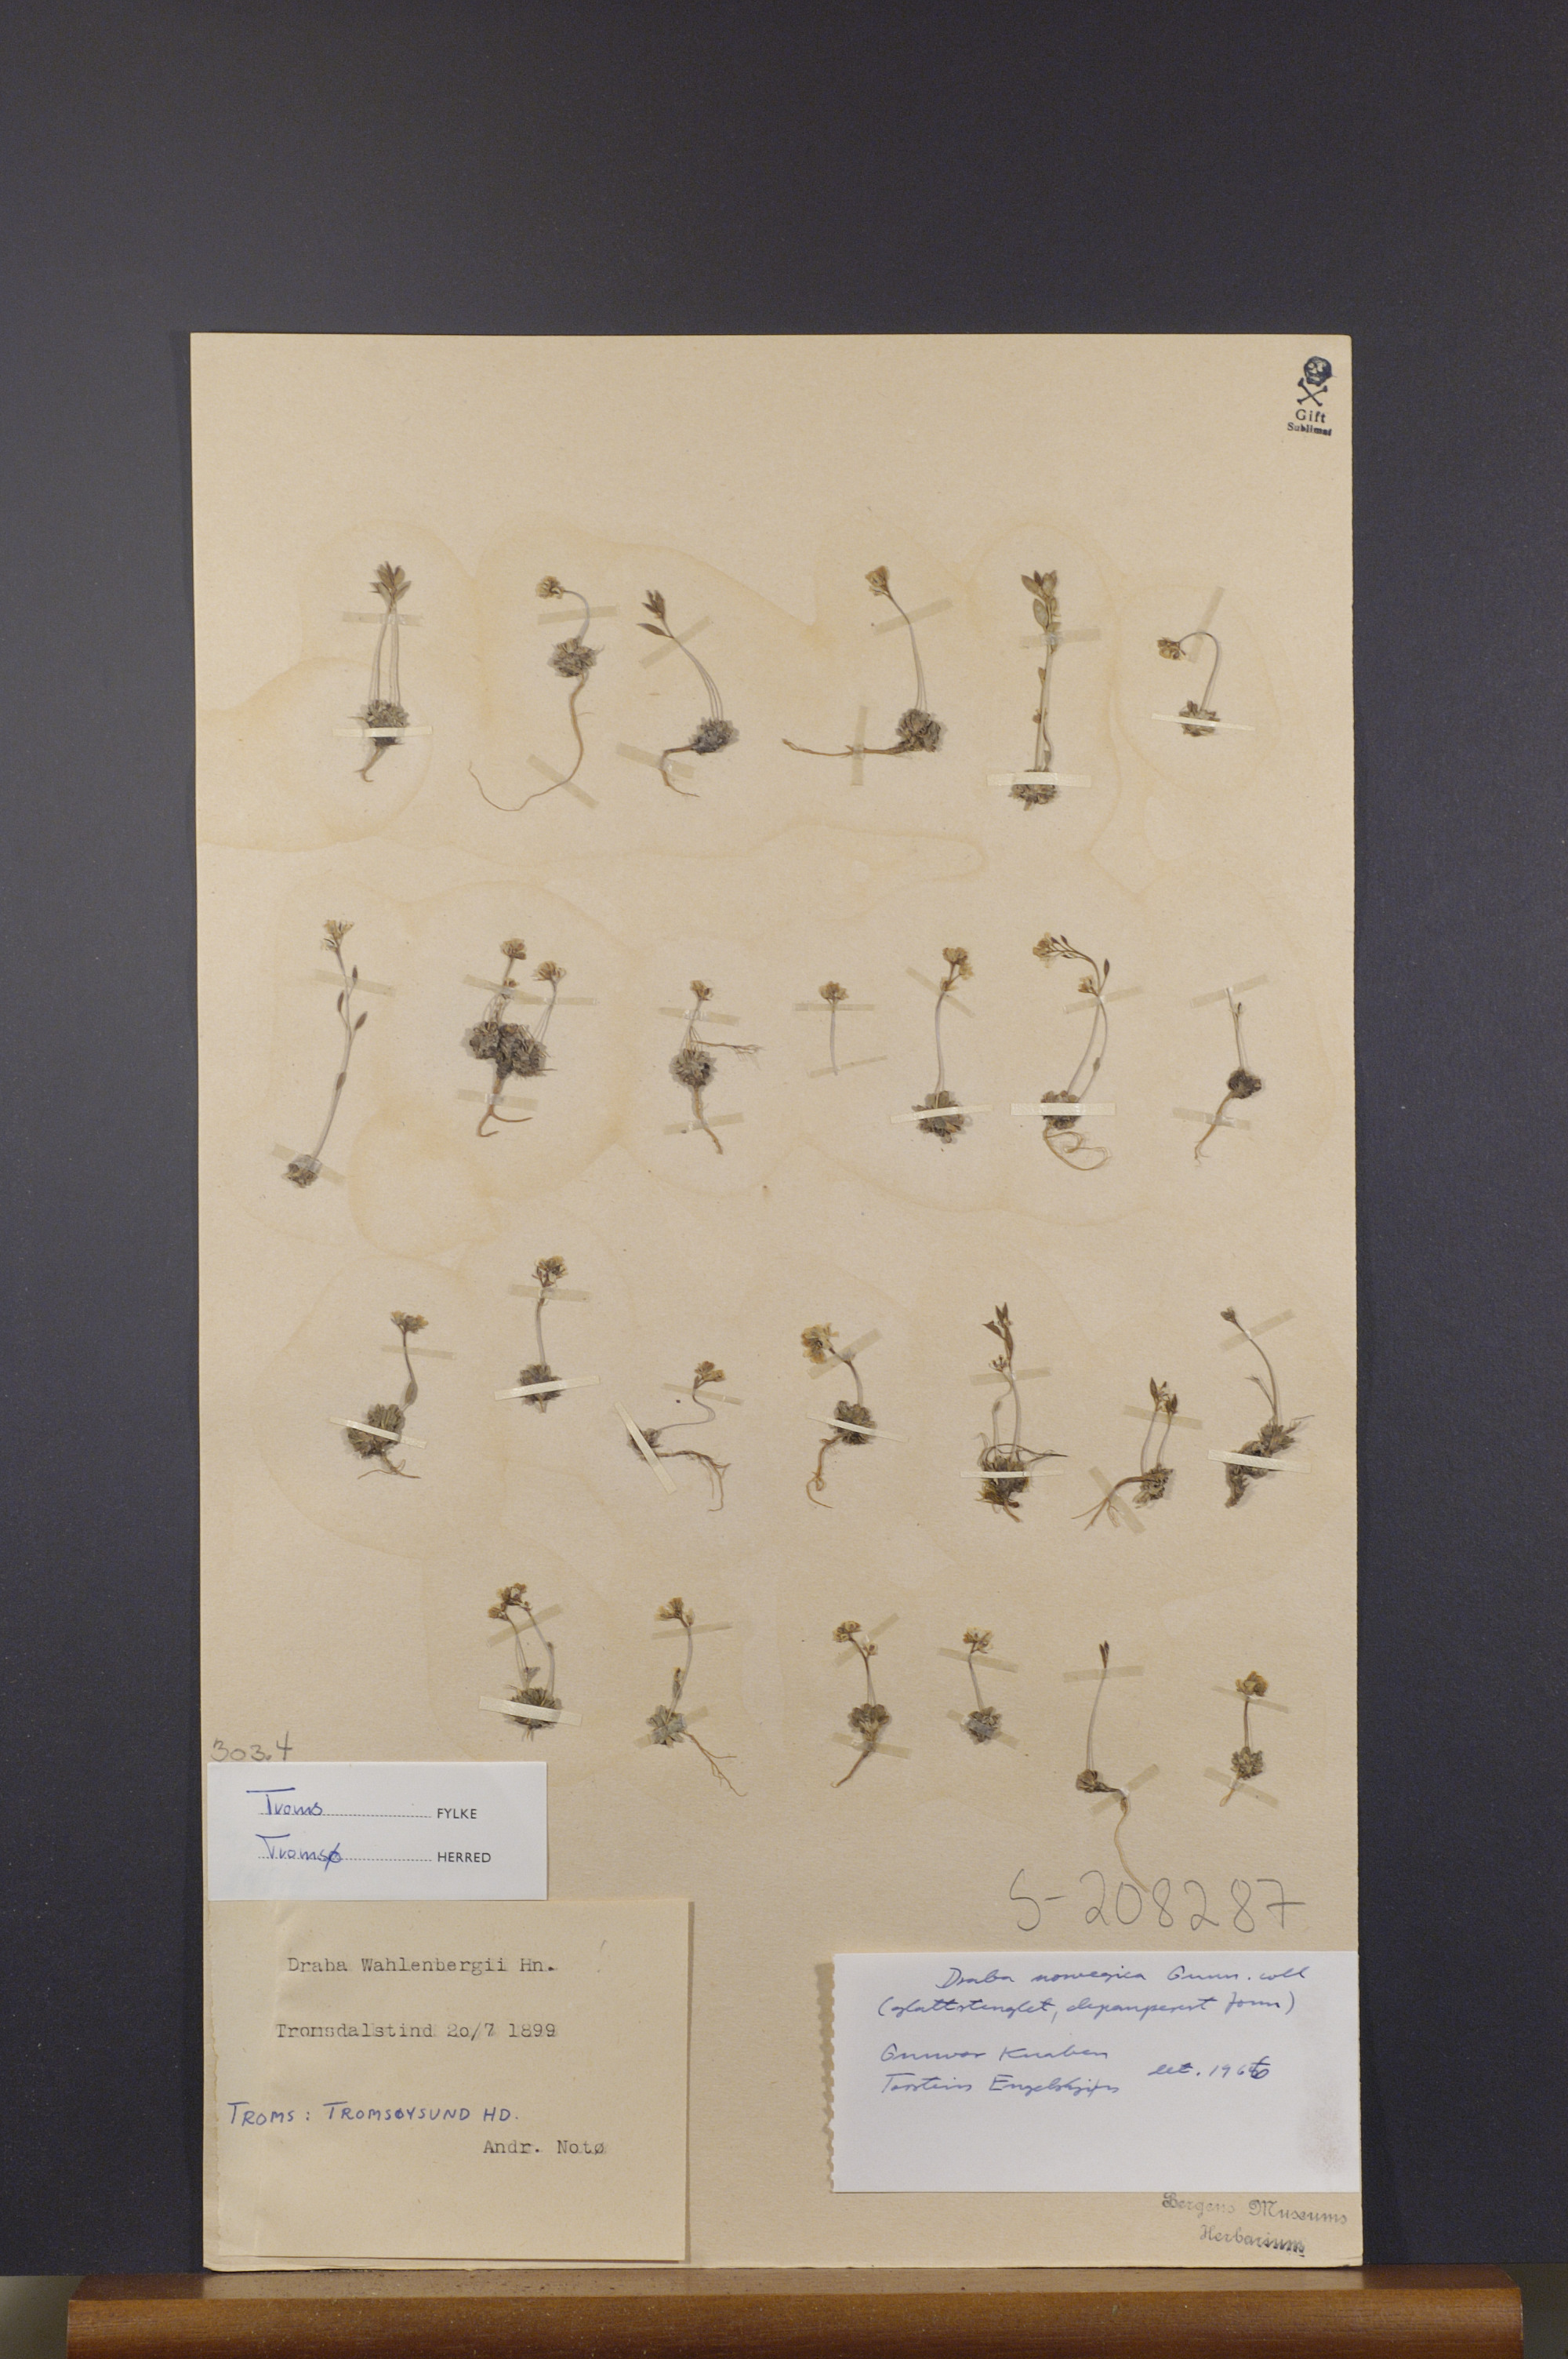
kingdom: Plantae
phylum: Tracheophyta
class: Magnoliopsida
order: Brassicales
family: Brassicaceae
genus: Draba
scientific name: Draba norvegica
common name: Rock whitlowgrass
